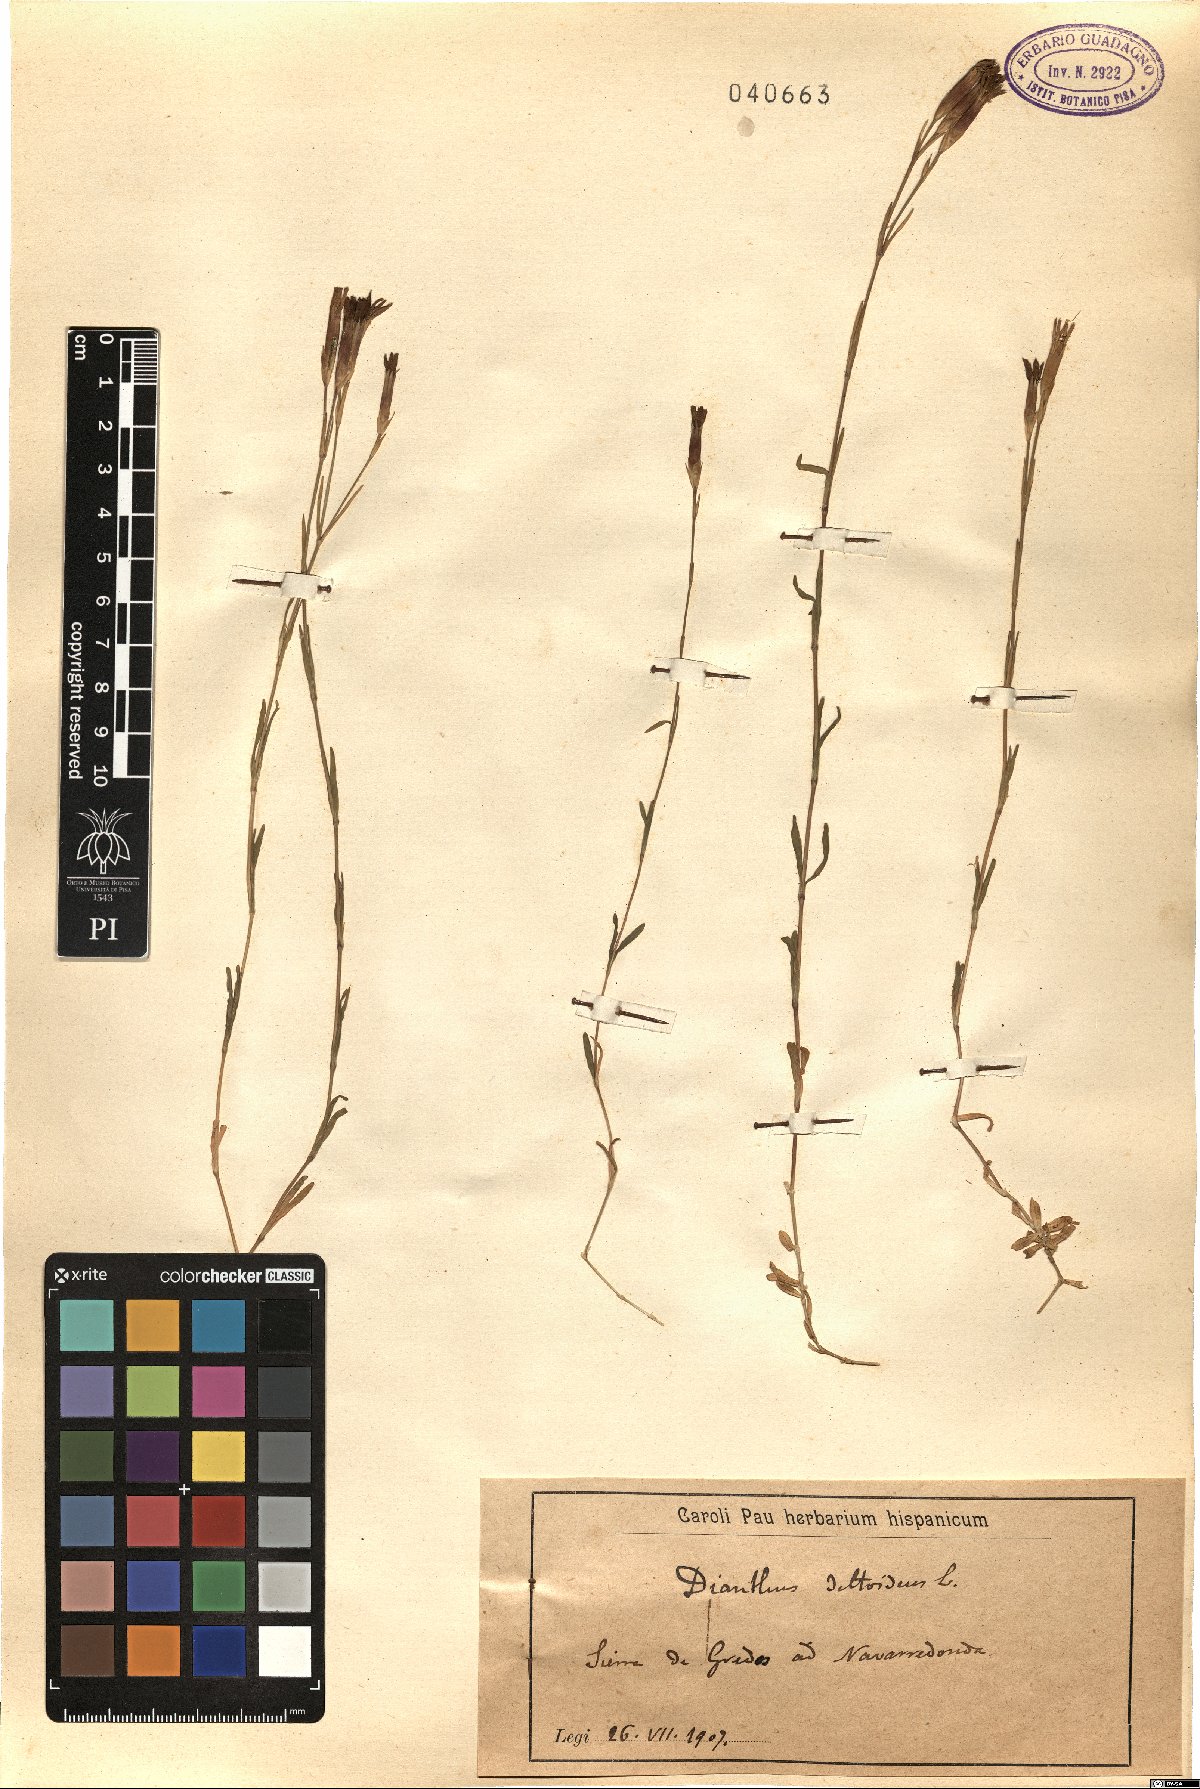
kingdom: Plantae
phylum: Tracheophyta
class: Magnoliopsida
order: Caryophyllales
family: Caryophyllaceae
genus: Dianthus
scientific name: Dianthus deltoides
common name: Maiden pink
